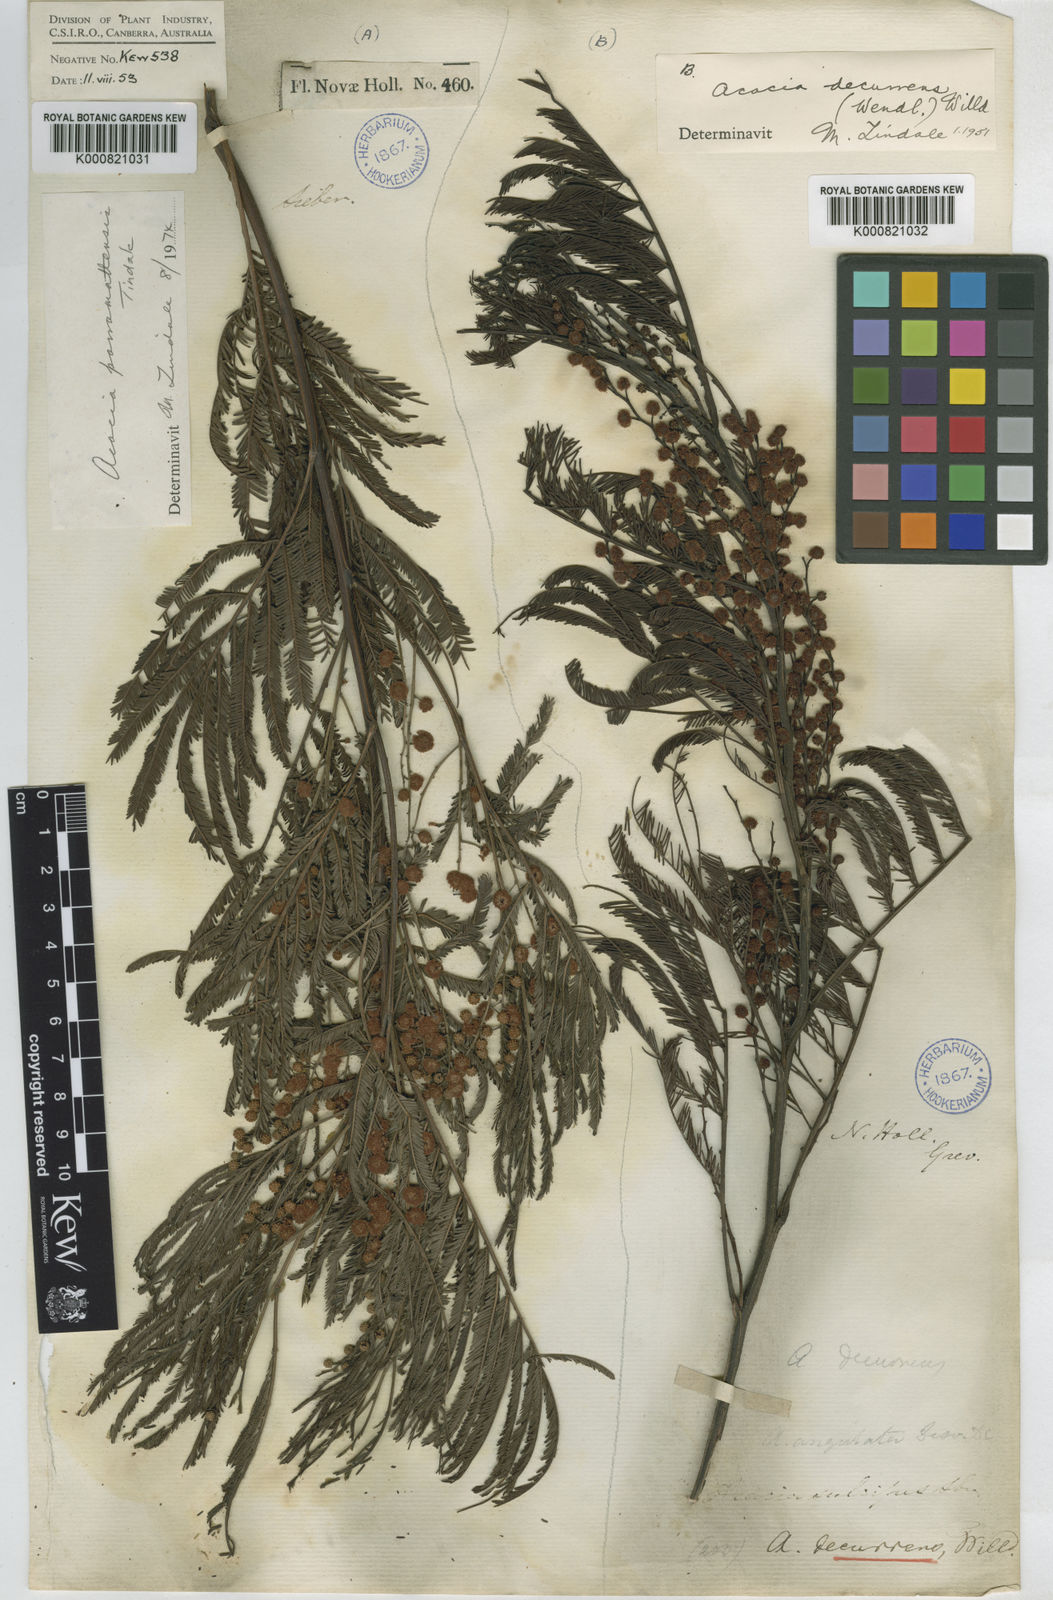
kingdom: Plantae
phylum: Tracheophyta
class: Magnoliopsida
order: Fabales
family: Fabaceae
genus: Acacia
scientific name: Acacia decurrens
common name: Green wattle
